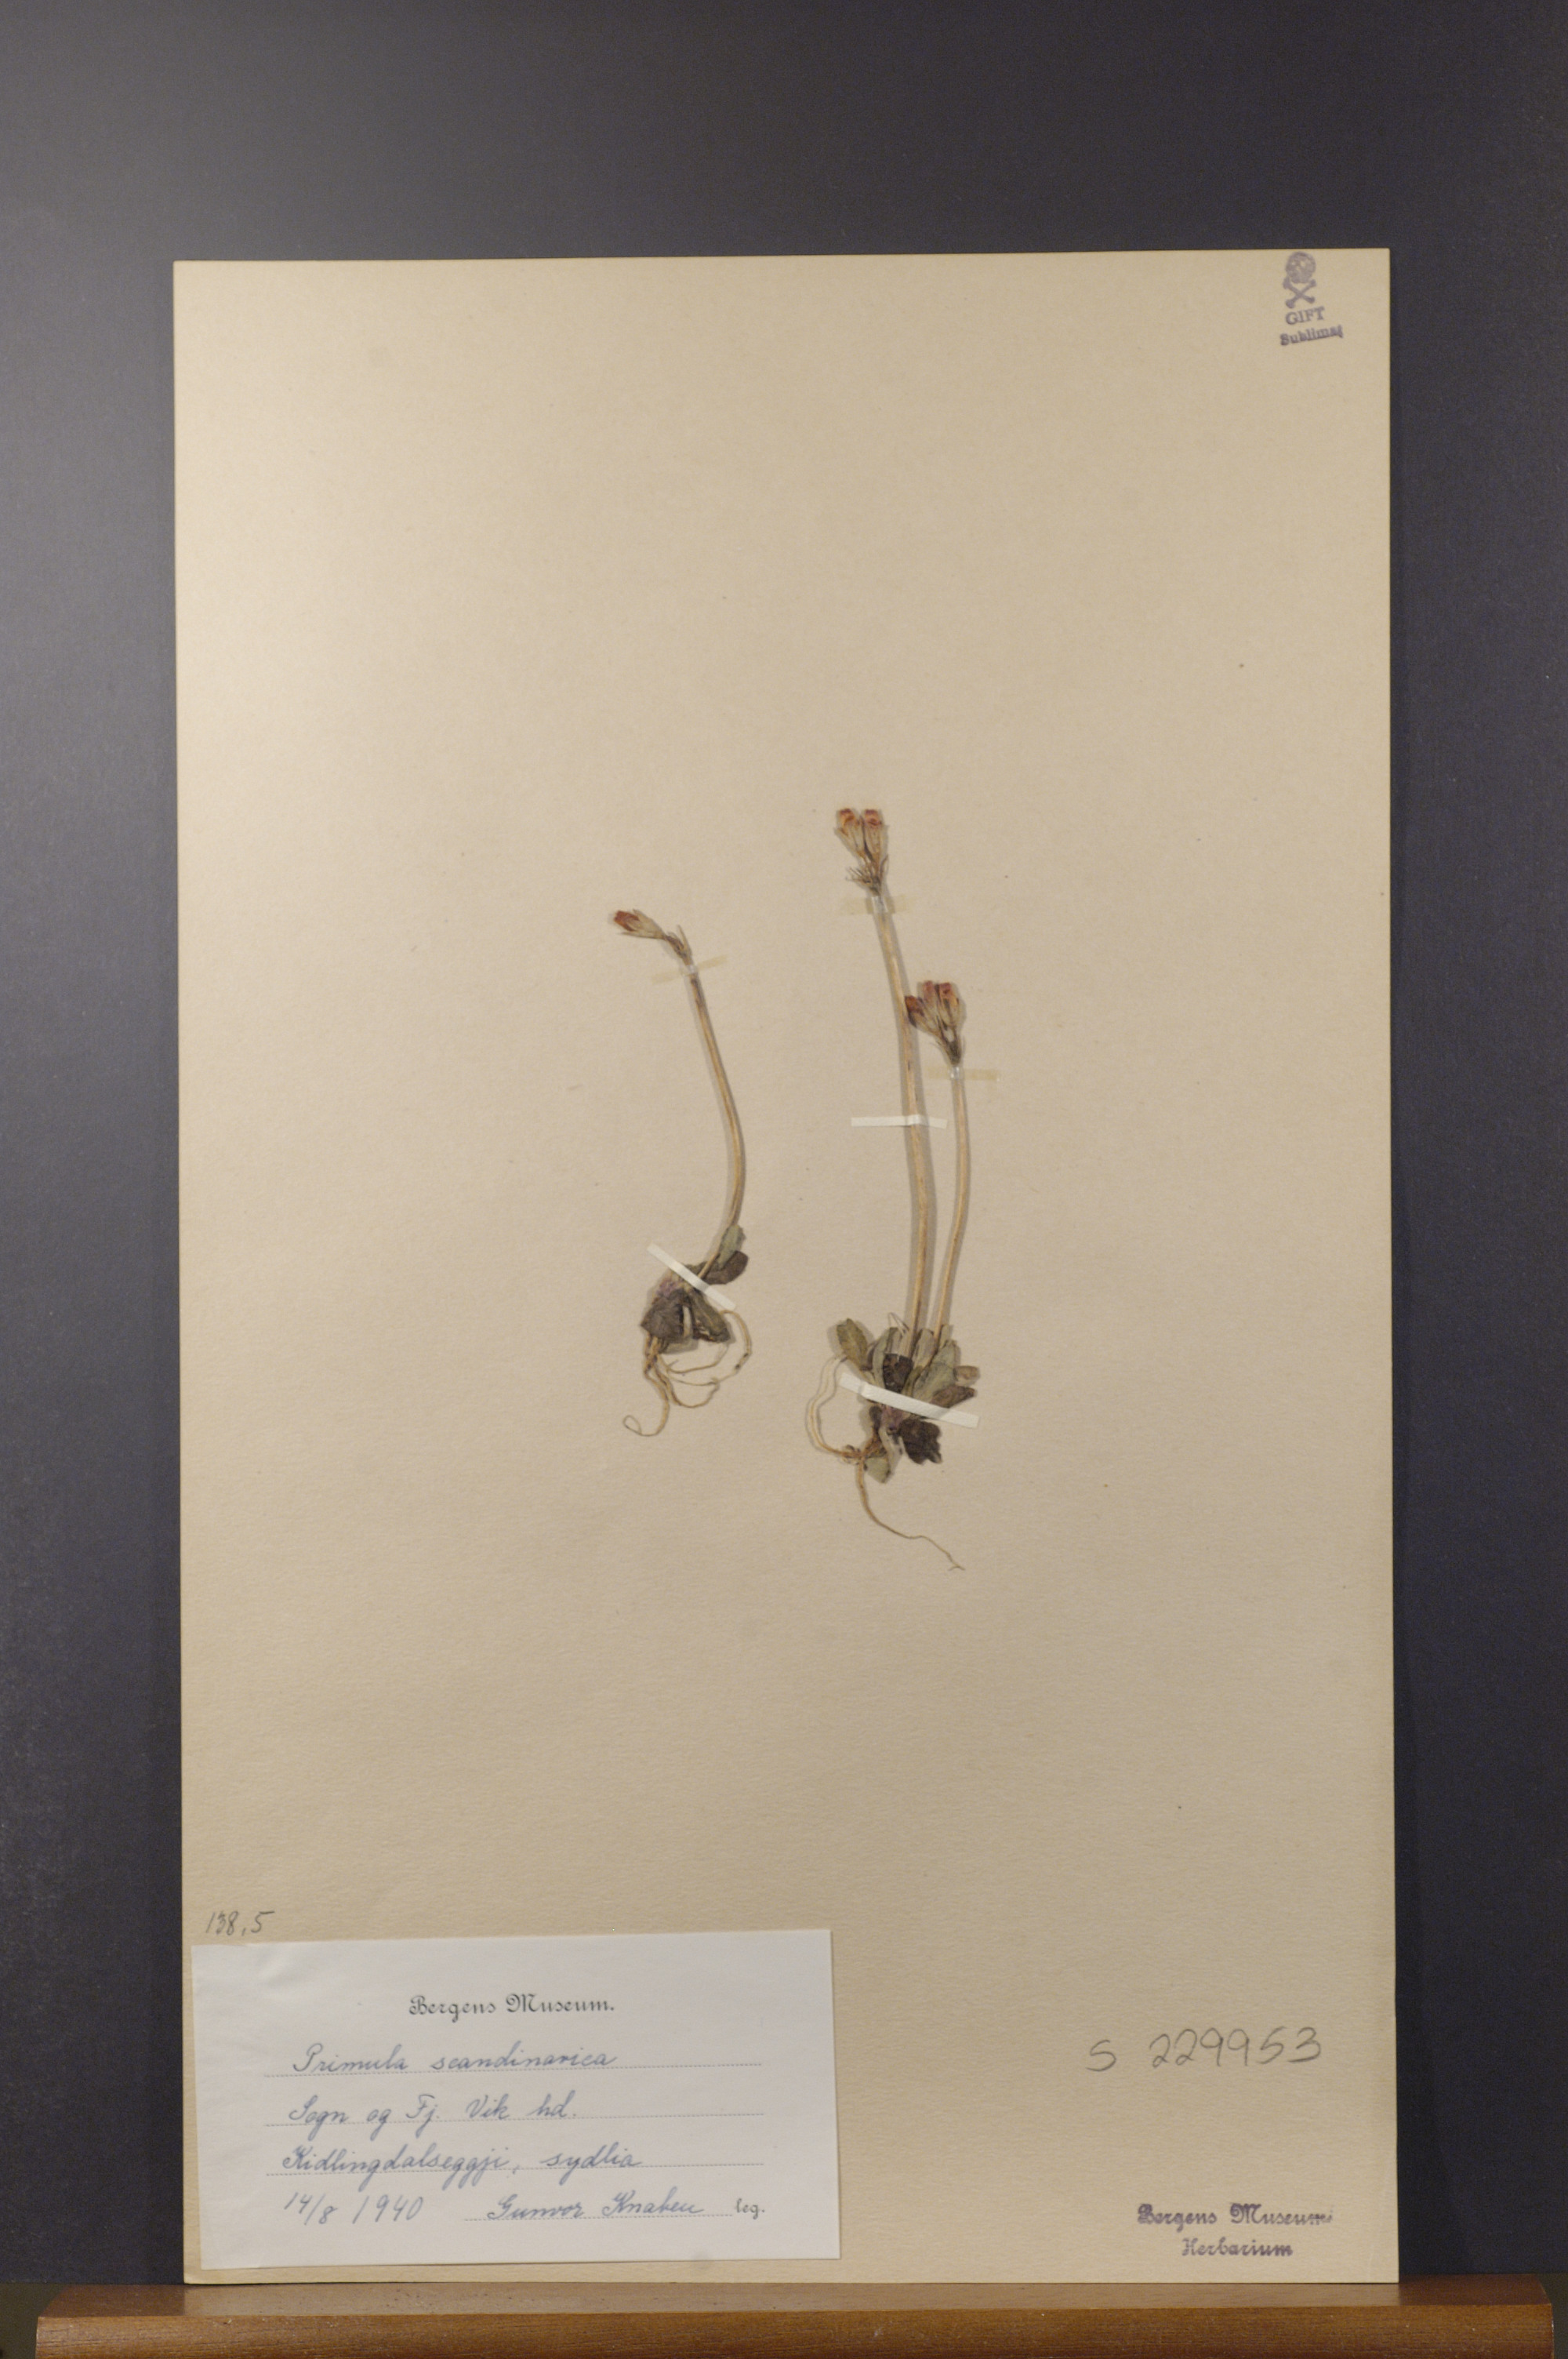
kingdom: Plantae
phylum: Tracheophyta
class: Magnoliopsida
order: Ericales
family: Primulaceae
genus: Primula
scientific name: Primula scandinavica
